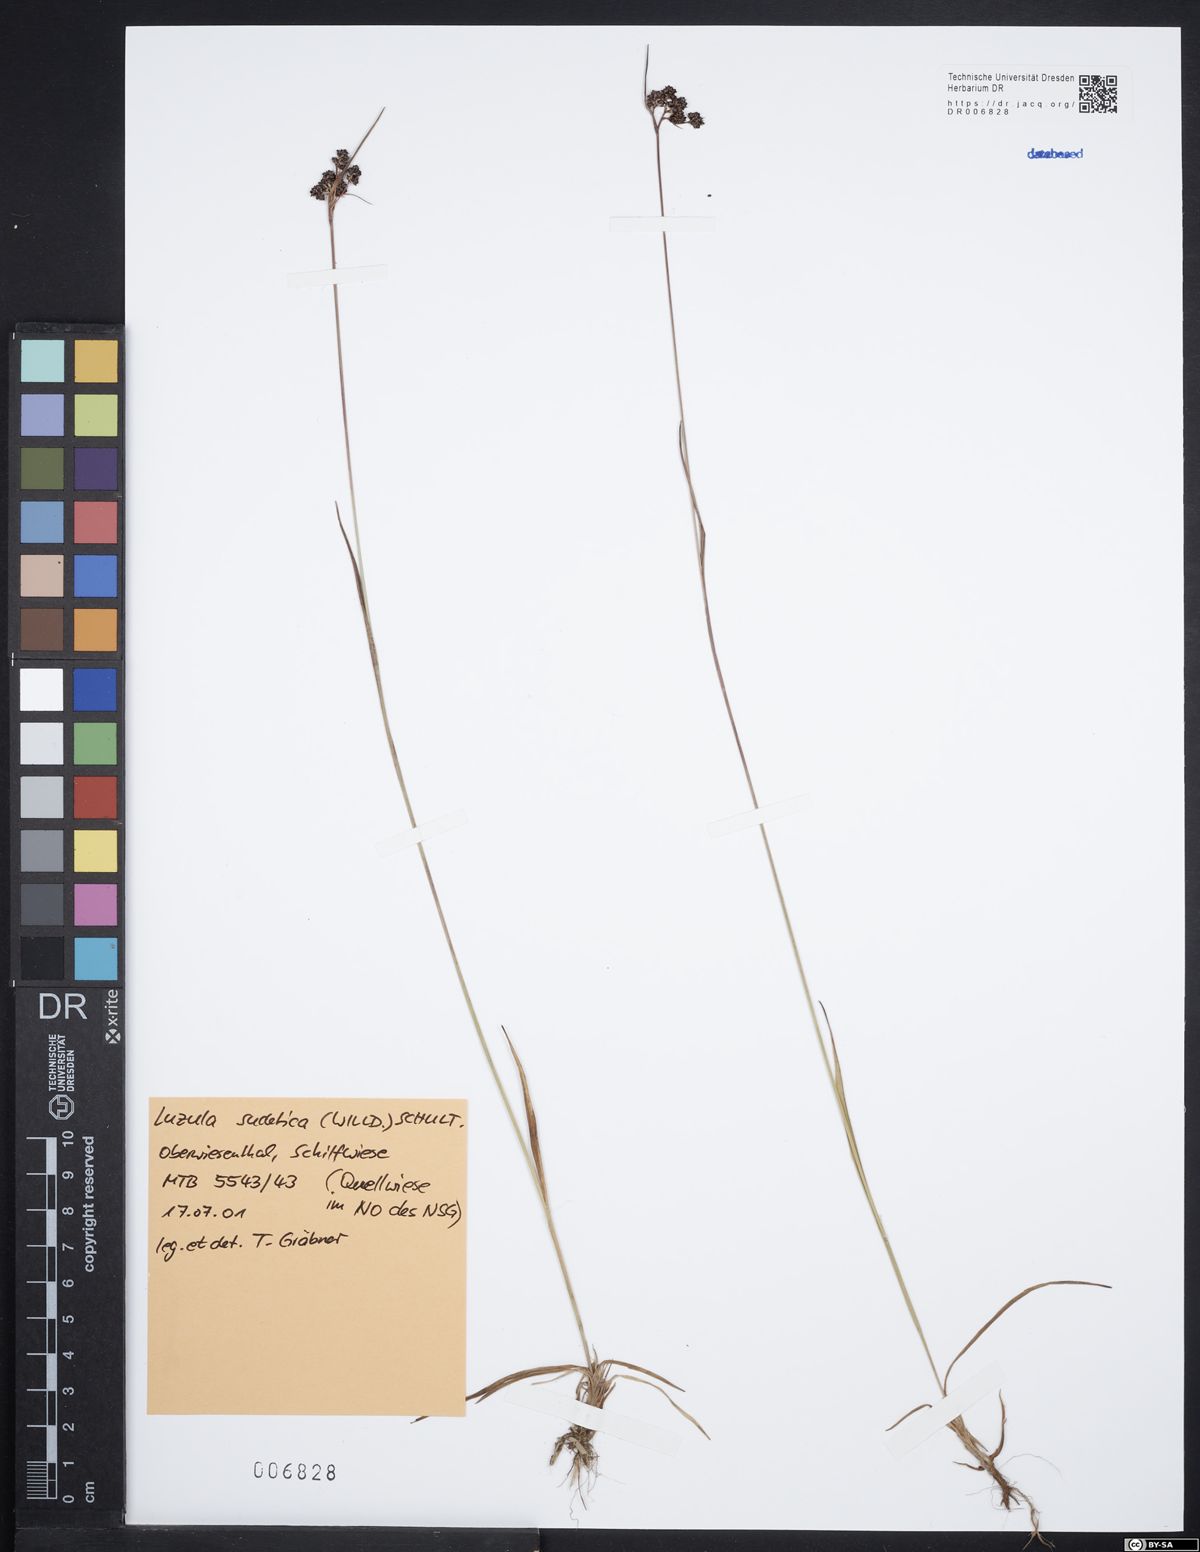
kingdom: Plantae
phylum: Tracheophyta
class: Liliopsida
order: Poales
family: Juncaceae
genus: Luzula
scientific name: Luzula sudetica
